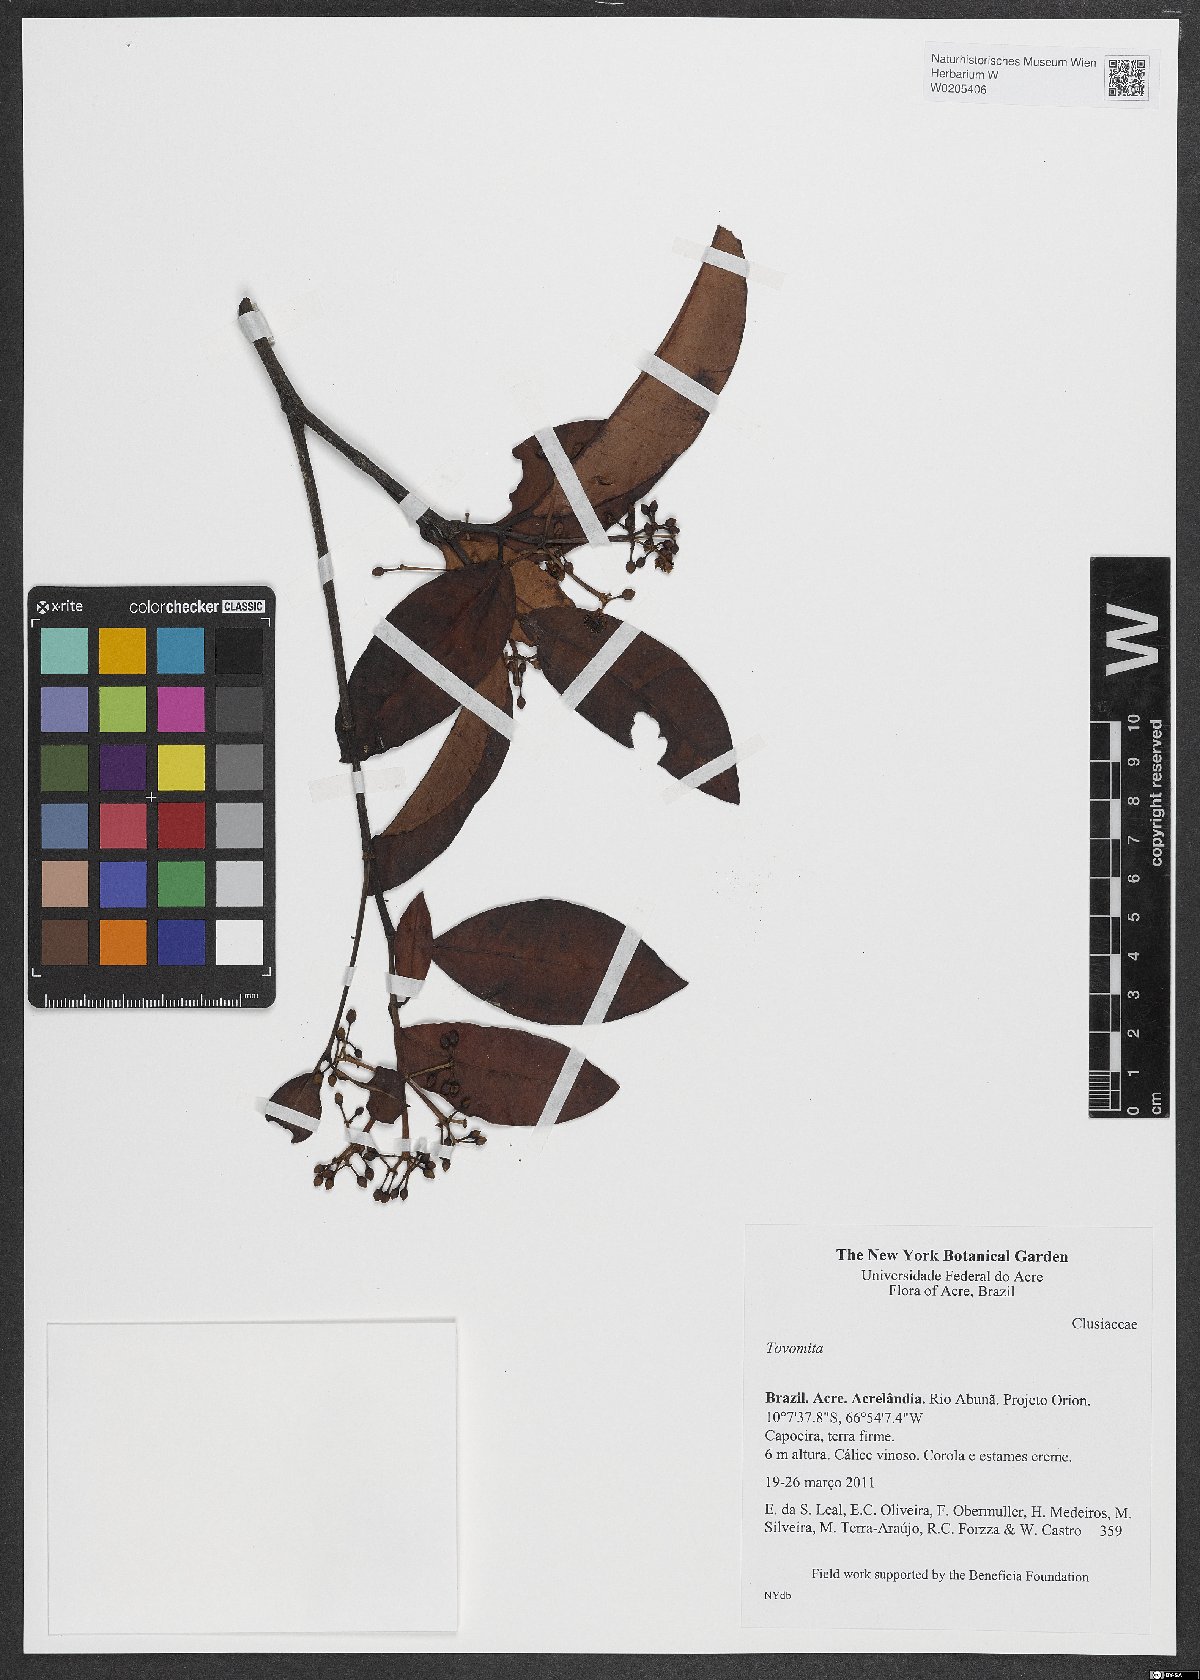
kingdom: Plantae
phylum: Tracheophyta
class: Magnoliopsida
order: Malpighiales
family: Clusiaceae
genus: Tovomita
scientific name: Tovomita
